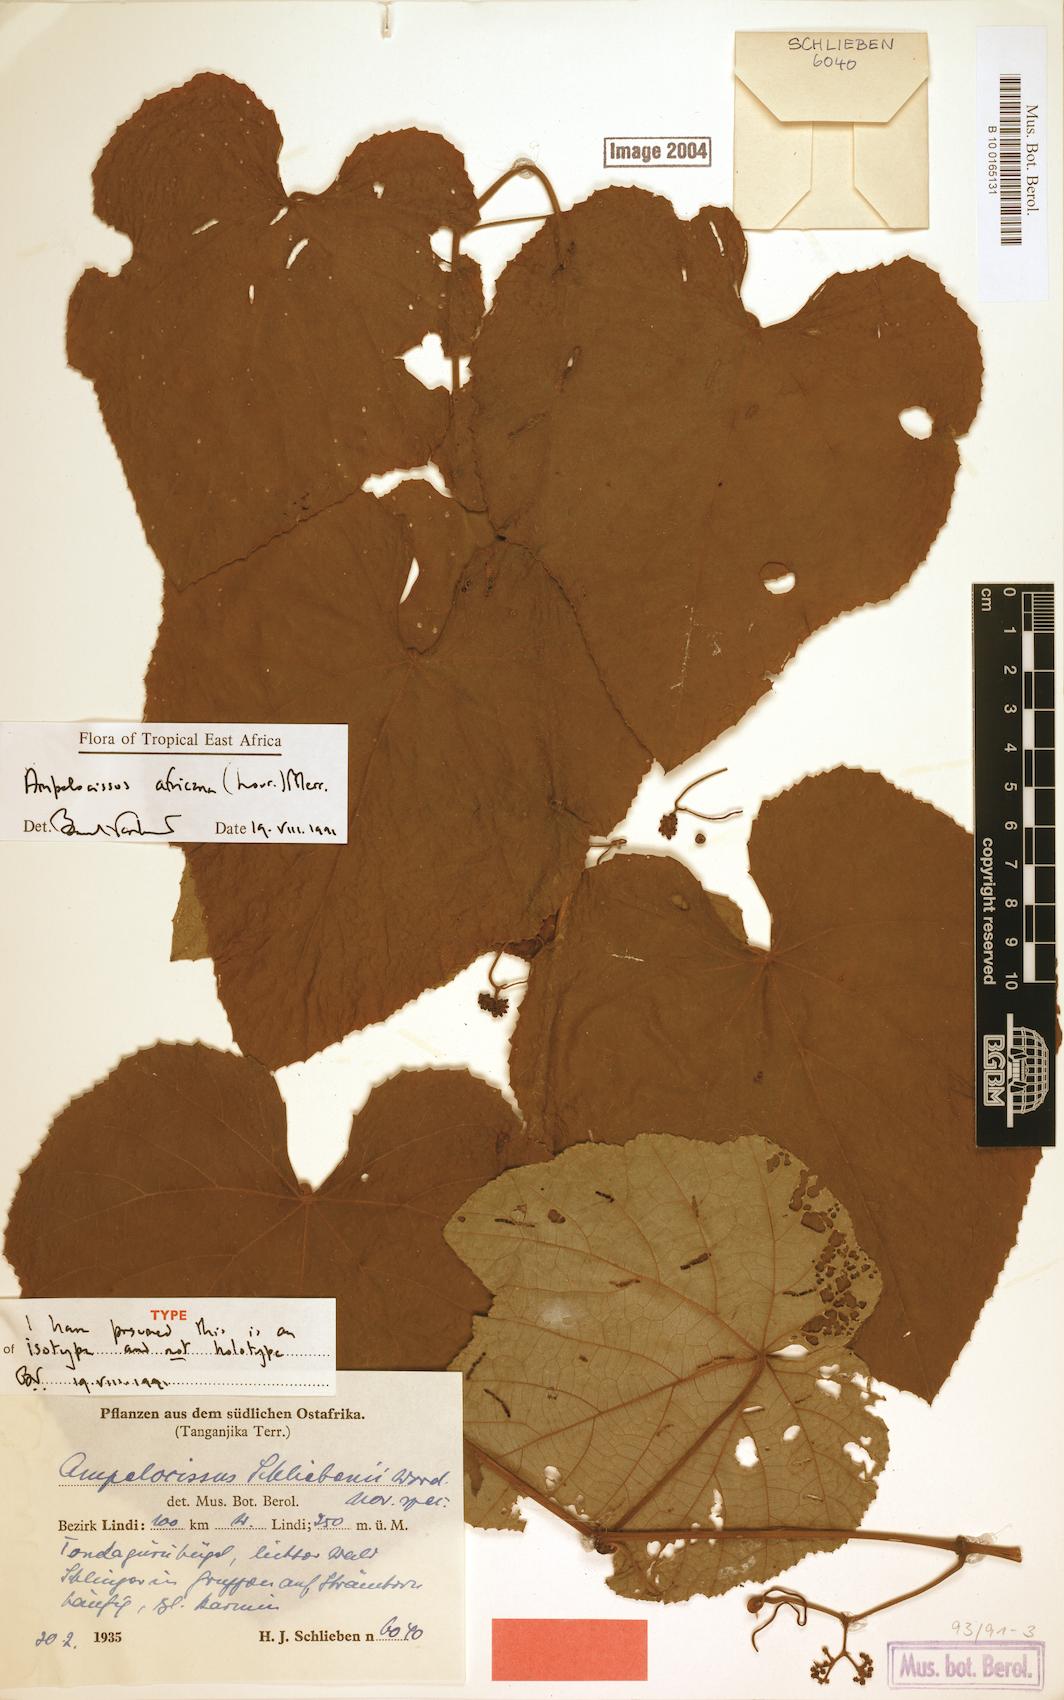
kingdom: Plantae
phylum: Tracheophyta
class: Magnoliopsida
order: Vitales
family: Vitaceae
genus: Ampelocissus
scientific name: Ampelocissus africana
